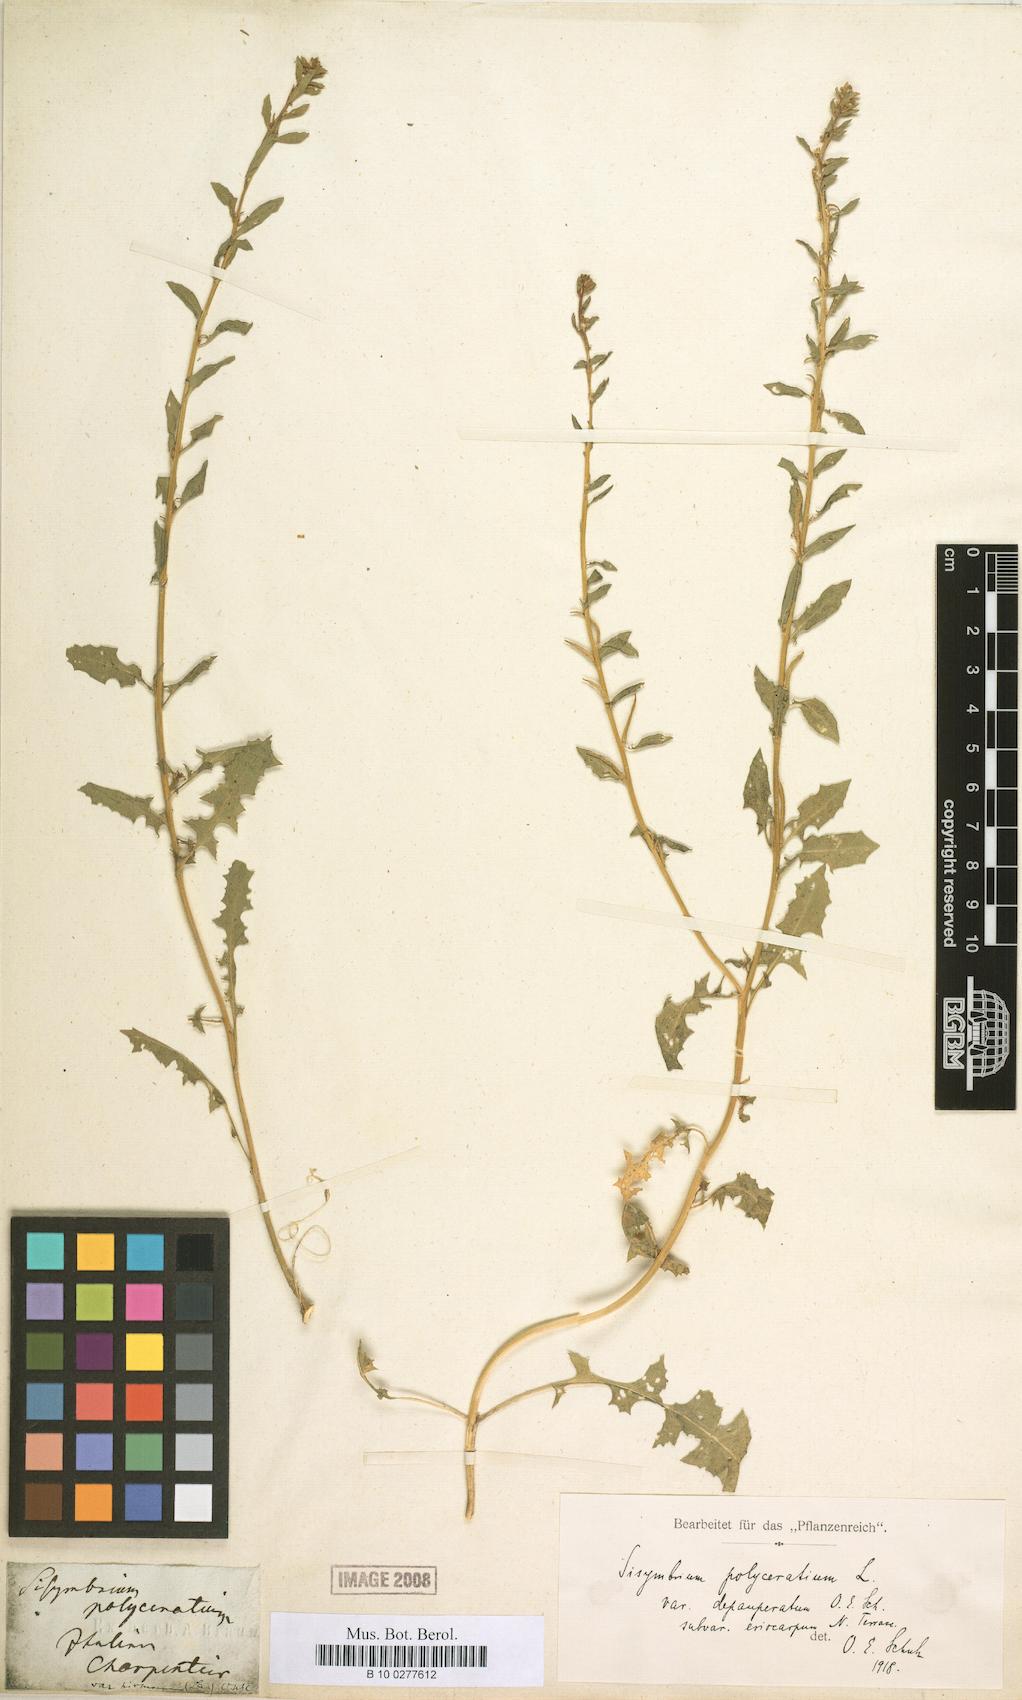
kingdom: Plantae
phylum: Tracheophyta
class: Magnoliopsida
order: Brassicales
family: Brassicaceae
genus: Sisymbrium
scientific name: Sisymbrium polyceratium
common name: Shortfruit hedgemustard
